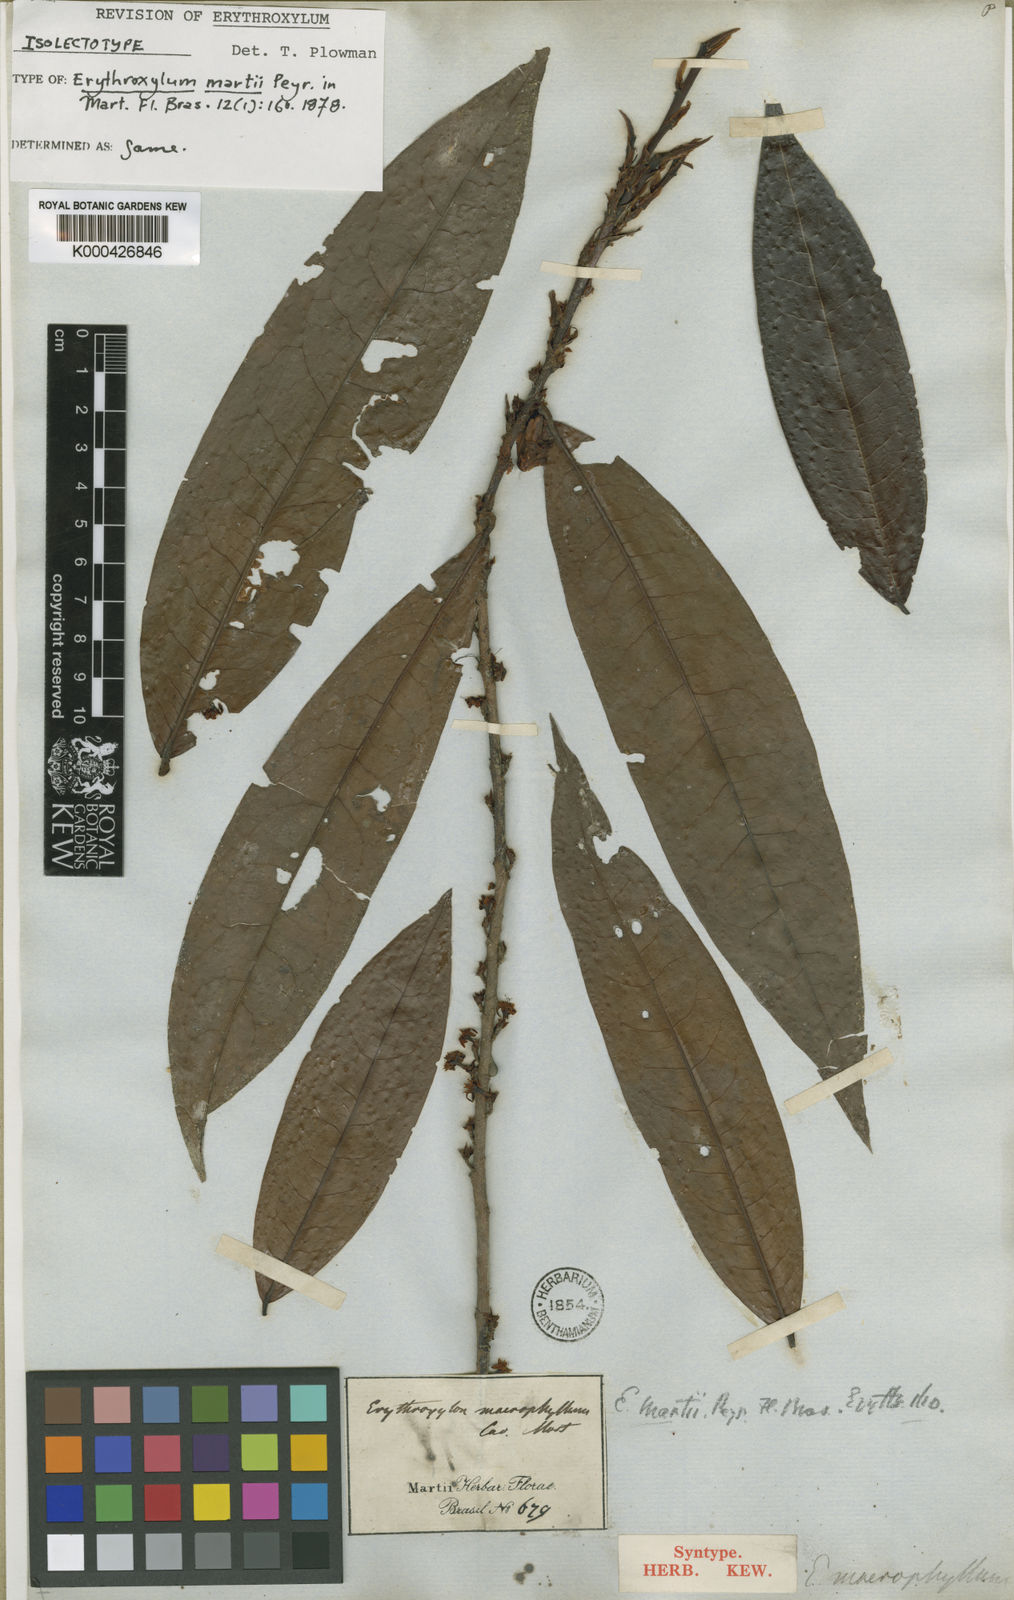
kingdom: Plantae
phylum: Tracheophyta
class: Magnoliopsida
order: Malpighiales
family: Erythroxylaceae
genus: Erythroxylum
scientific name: Erythroxylum martii
